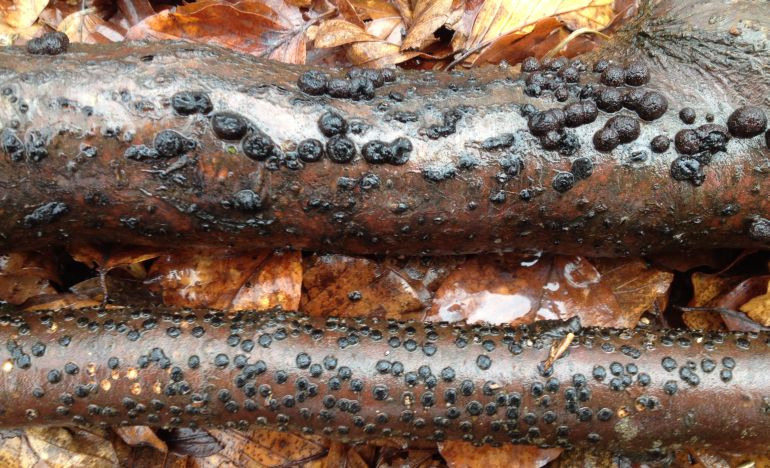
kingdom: Fungi
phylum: Ascomycota
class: Sordariomycetes
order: Xylariales
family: Hypoxylaceae
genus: Hypoxylon
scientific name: Hypoxylon fragiforme
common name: kuljordbær
